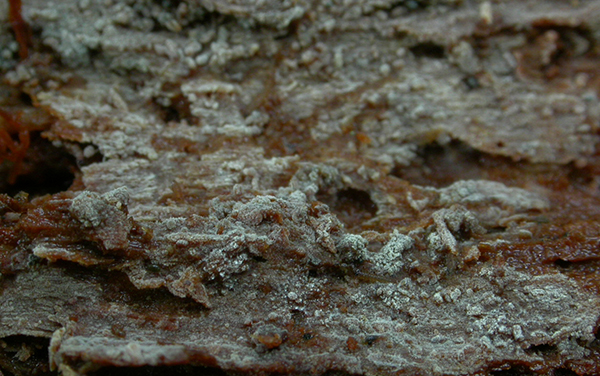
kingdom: Fungi
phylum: Basidiomycota
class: Agaricomycetes
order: Cantharellales
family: Tulasnellaceae
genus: Tulasnella
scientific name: Tulasnella eichleriana
